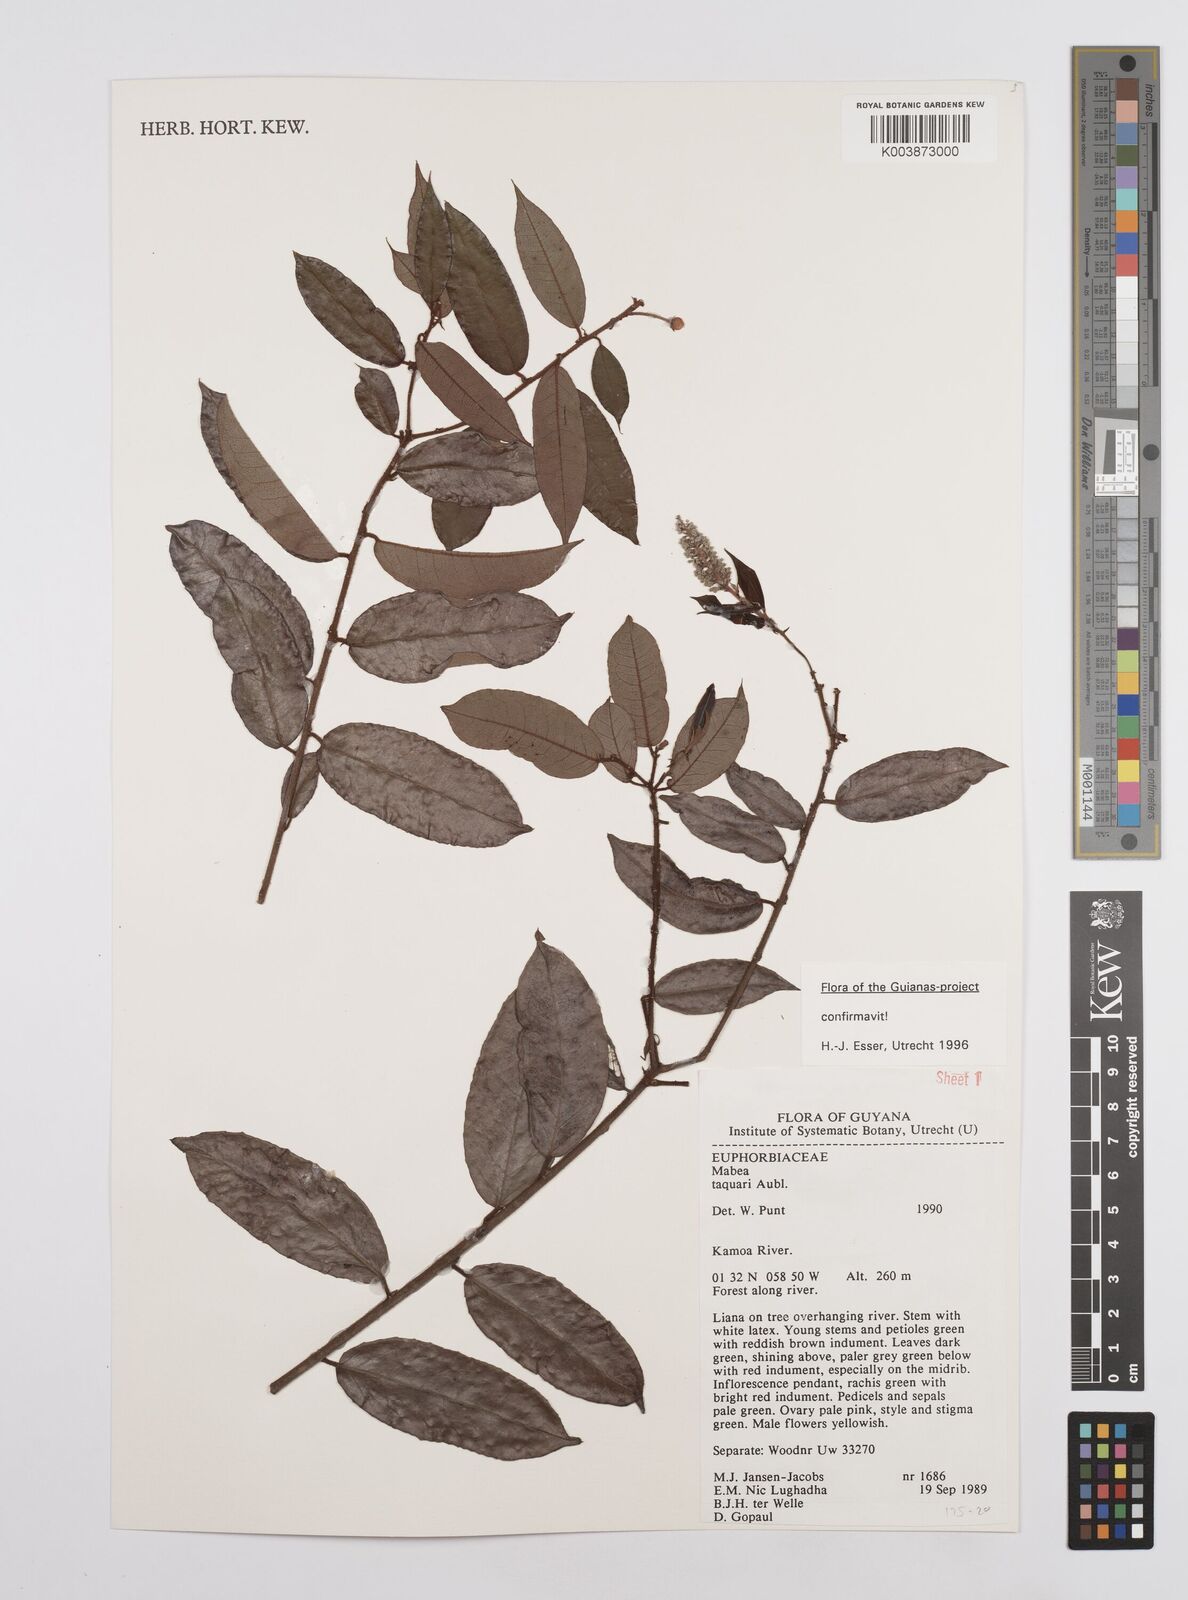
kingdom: Plantae
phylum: Tracheophyta
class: Magnoliopsida
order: Malpighiales
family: Euphorbiaceae
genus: Mabea
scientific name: Mabea taquari
